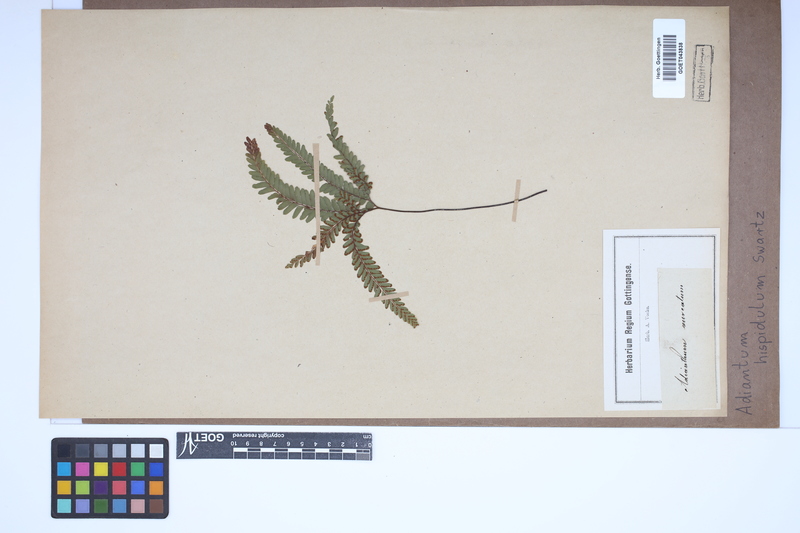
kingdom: Plantae
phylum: Tracheophyta
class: Polypodiopsida
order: Polypodiales
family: Pteridaceae
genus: Adiantum
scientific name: Adiantum hispidulum
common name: Rough maidenhair
